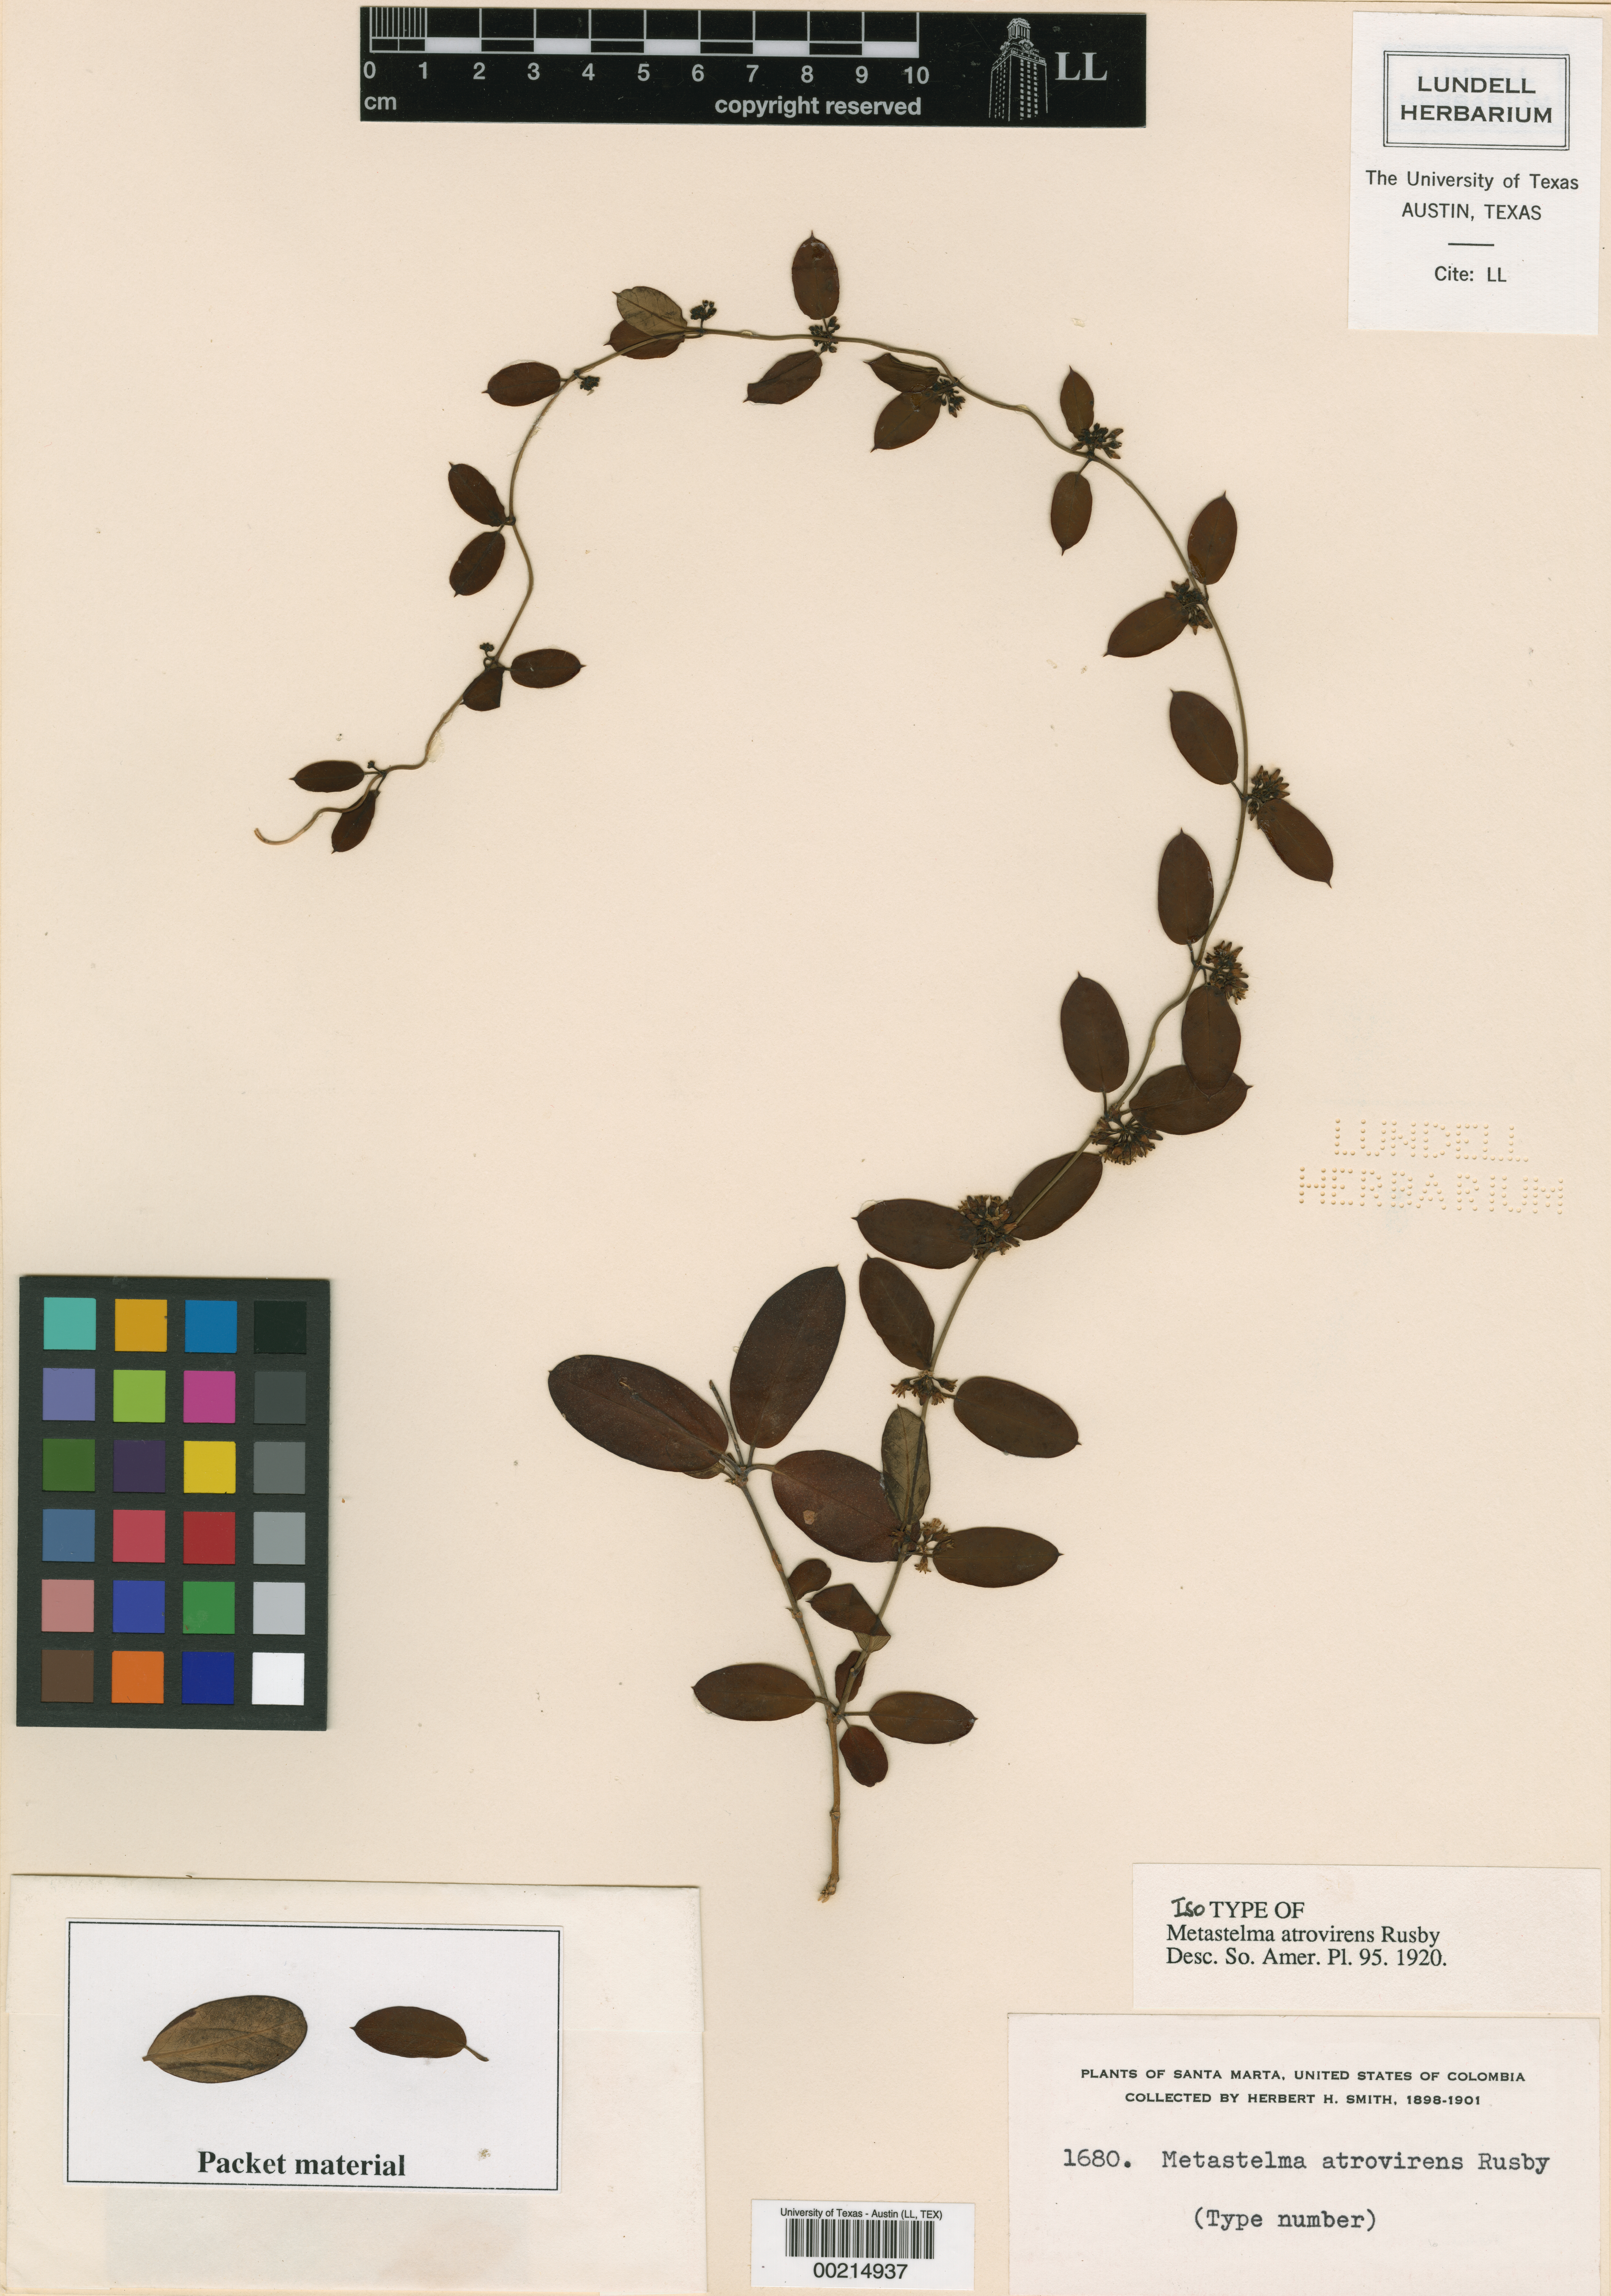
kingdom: Plantae
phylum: Tracheophyta
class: Magnoliopsida
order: Gentianales
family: Apocynaceae
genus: Metastelma
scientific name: Metastelma atrovirens
